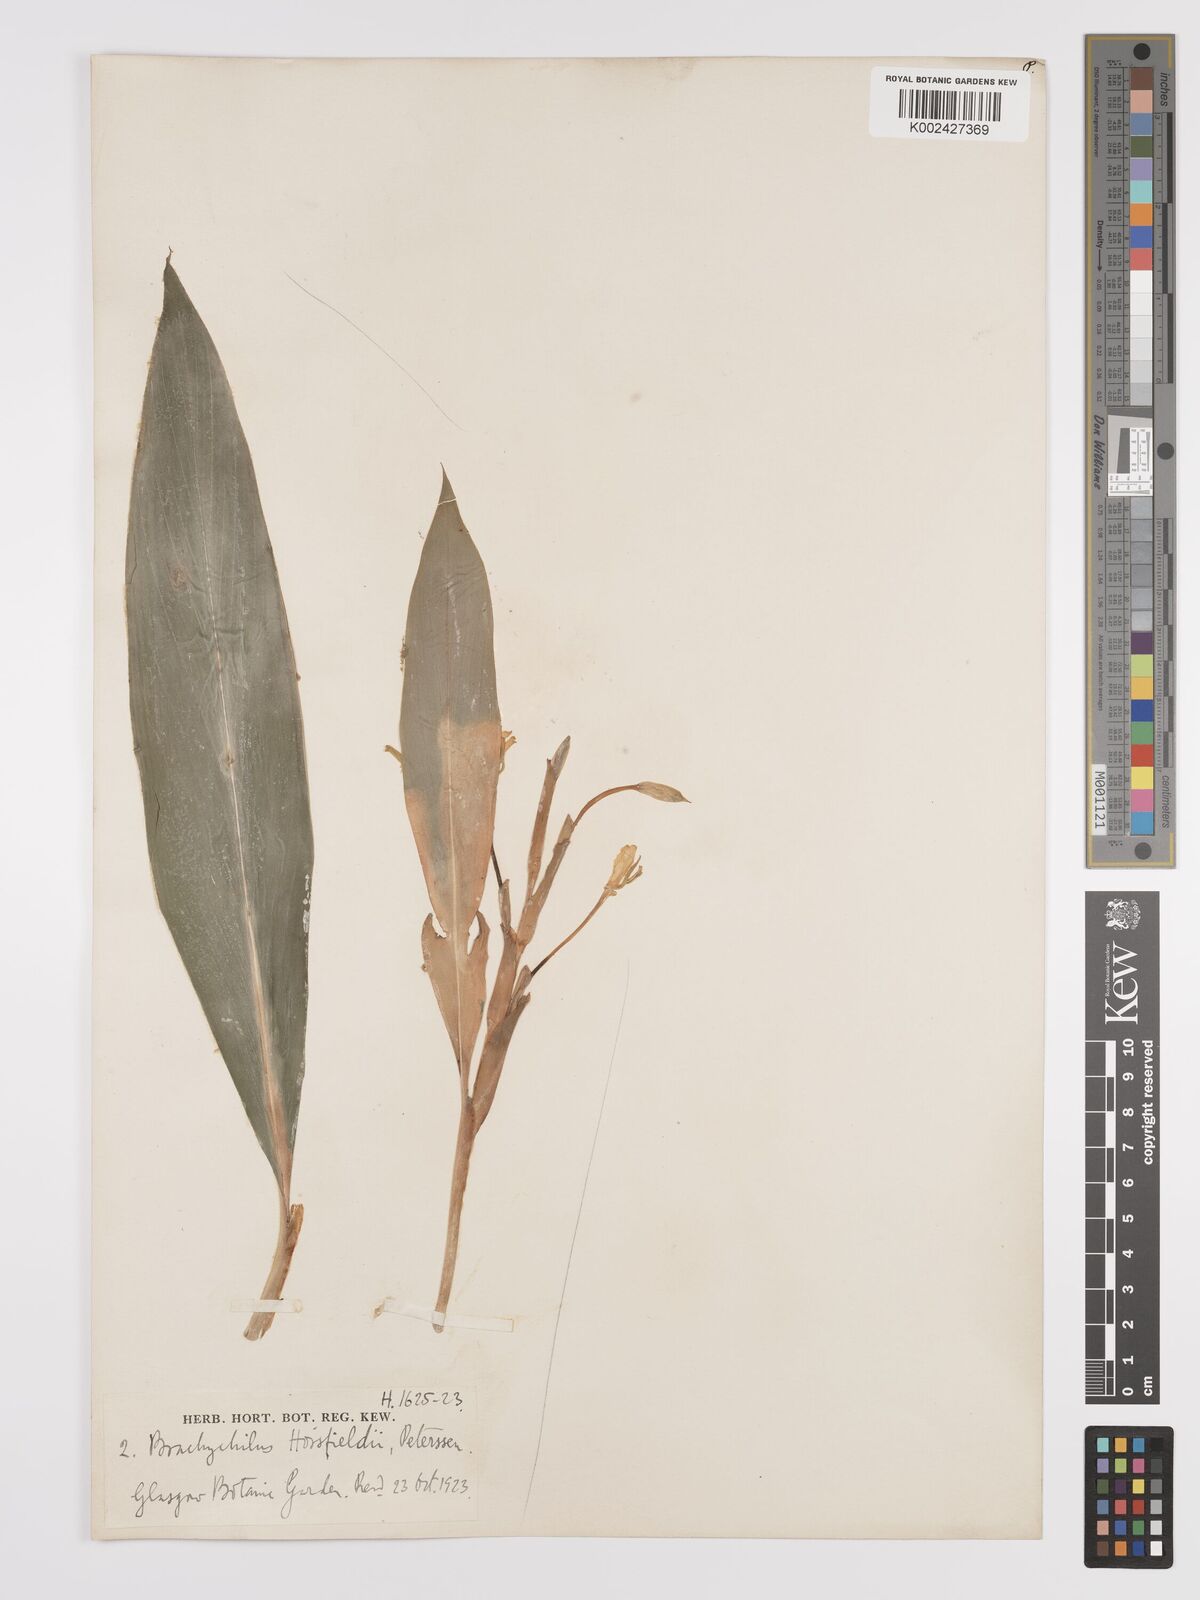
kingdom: Plantae
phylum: Tracheophyta
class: Liliopsida
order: Zingiberales
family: Zingiberaceae
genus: Hedychium
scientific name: Hedychium horsfieldii
